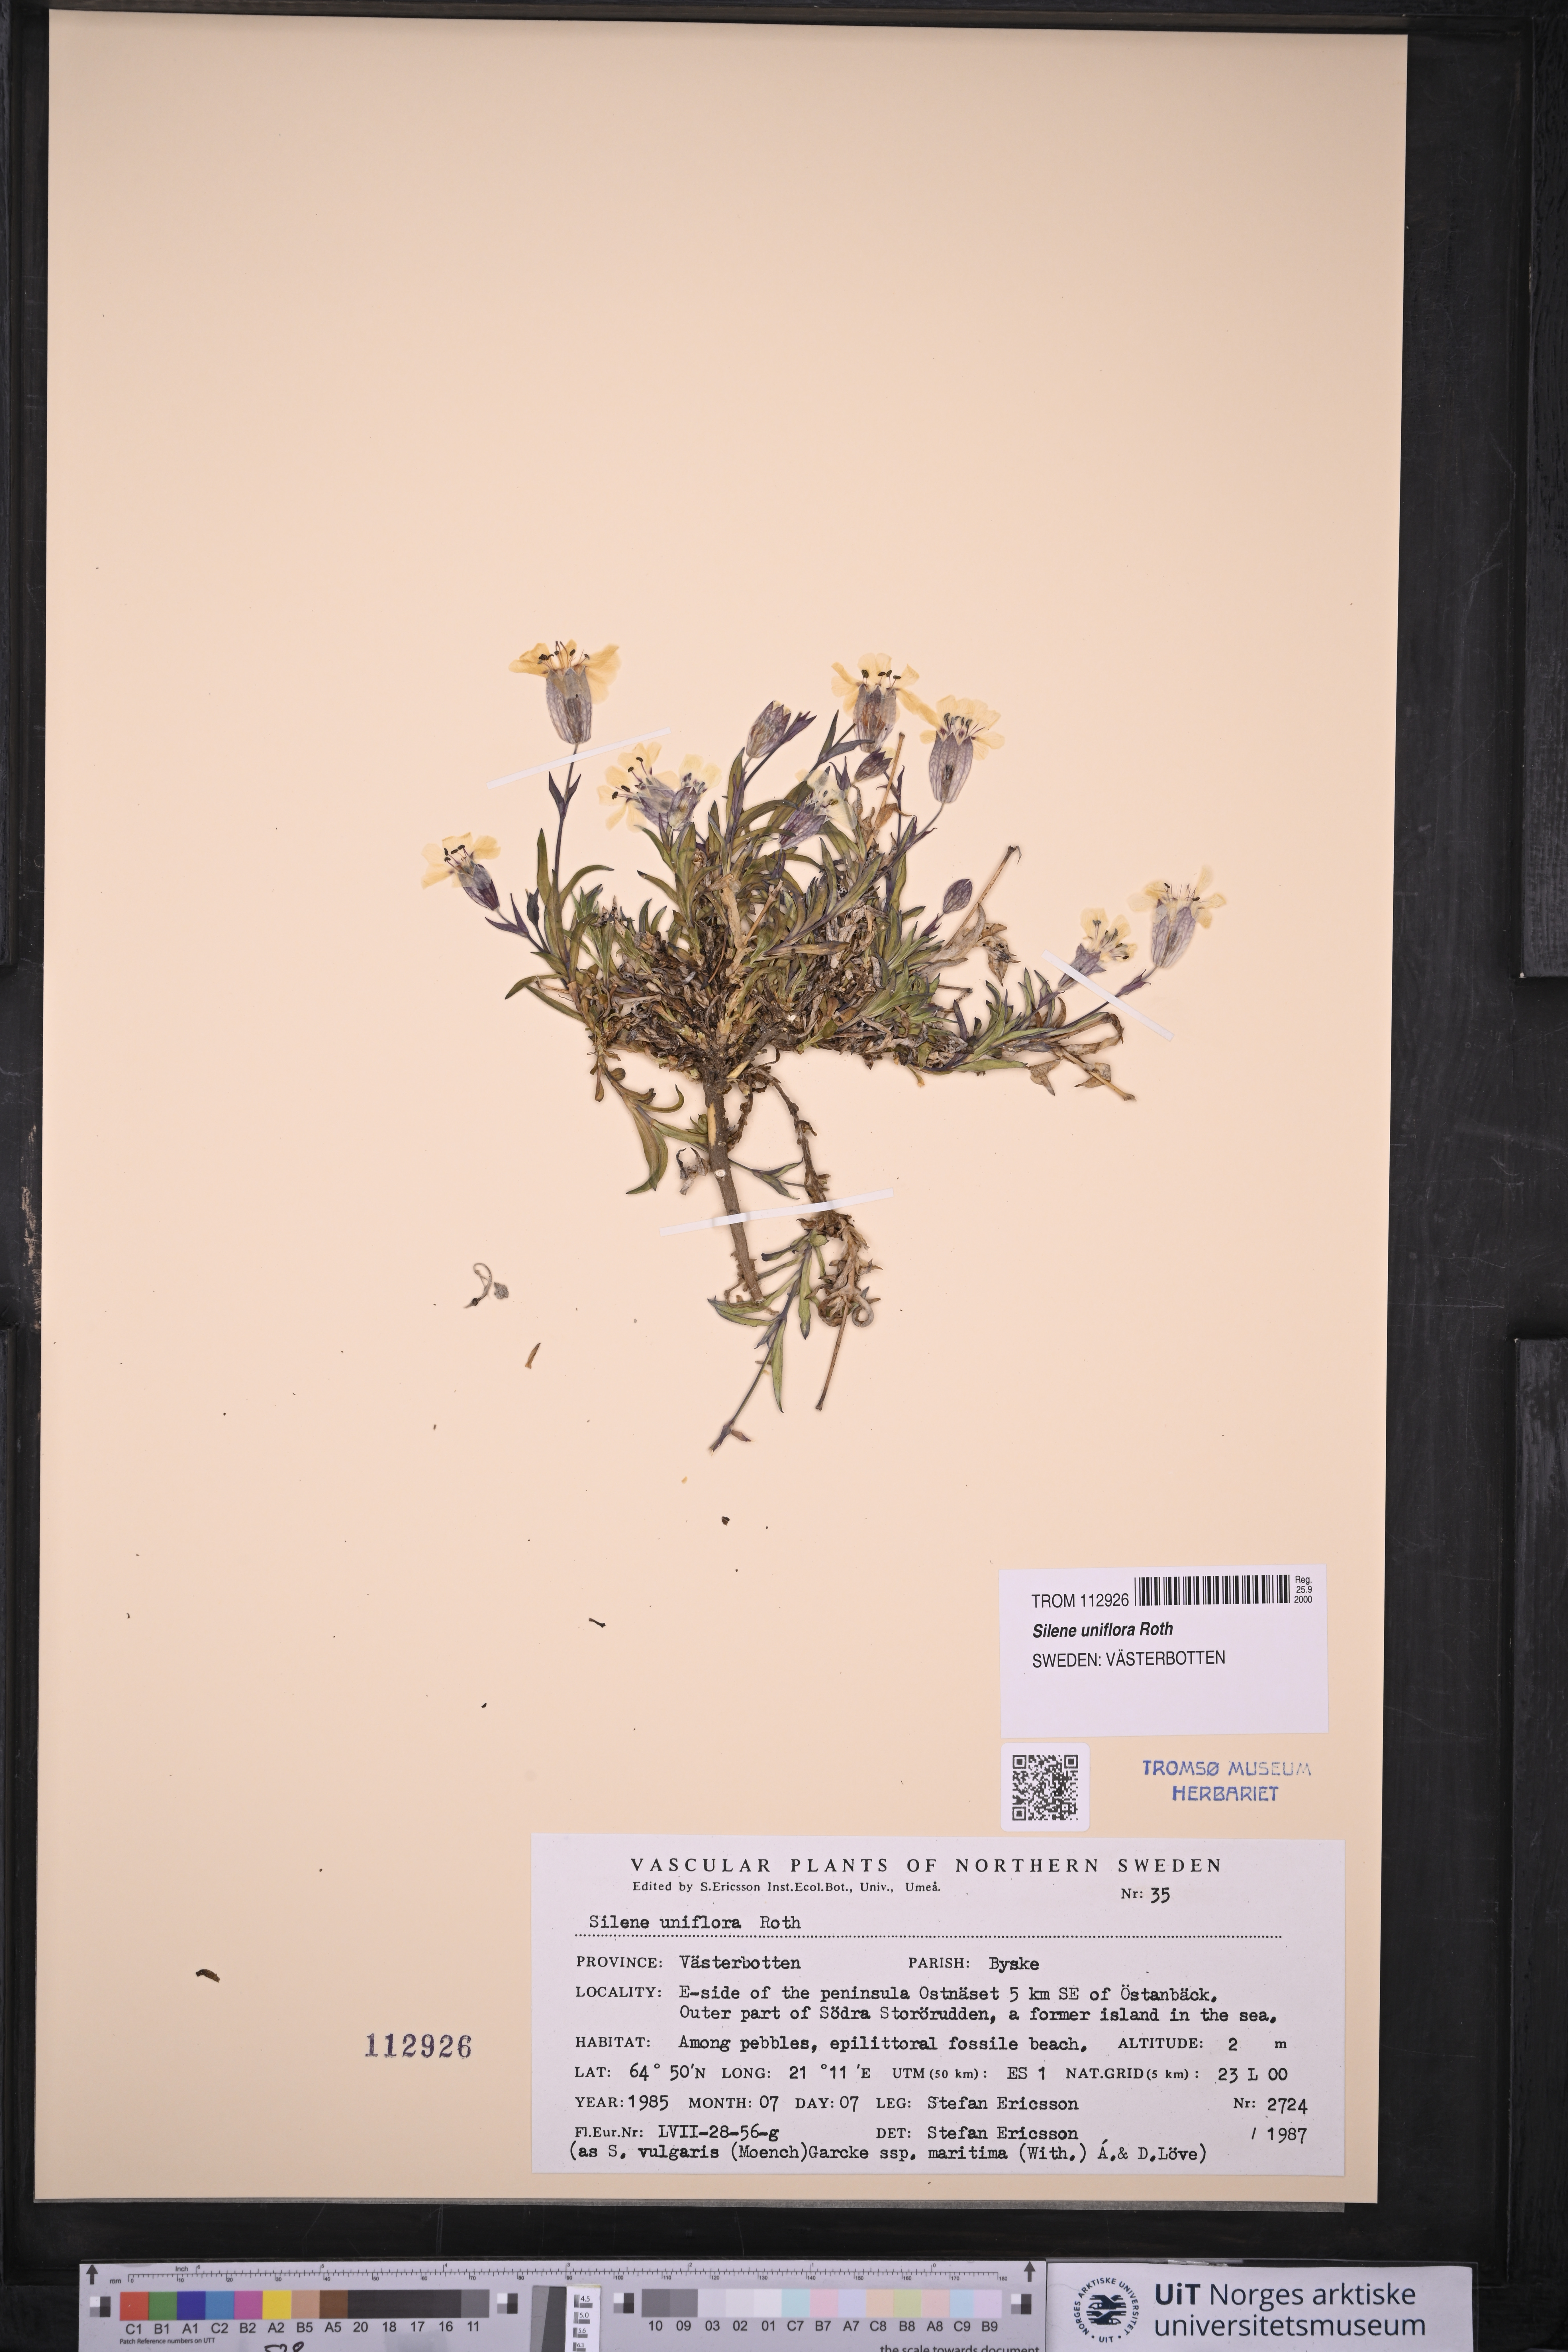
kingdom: Plantae
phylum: Tracheophyta
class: Magnoliopsida
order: Caryophyllales
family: Caryophyllaceae
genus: Silene
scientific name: Silene uniflora
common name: Sea campion
